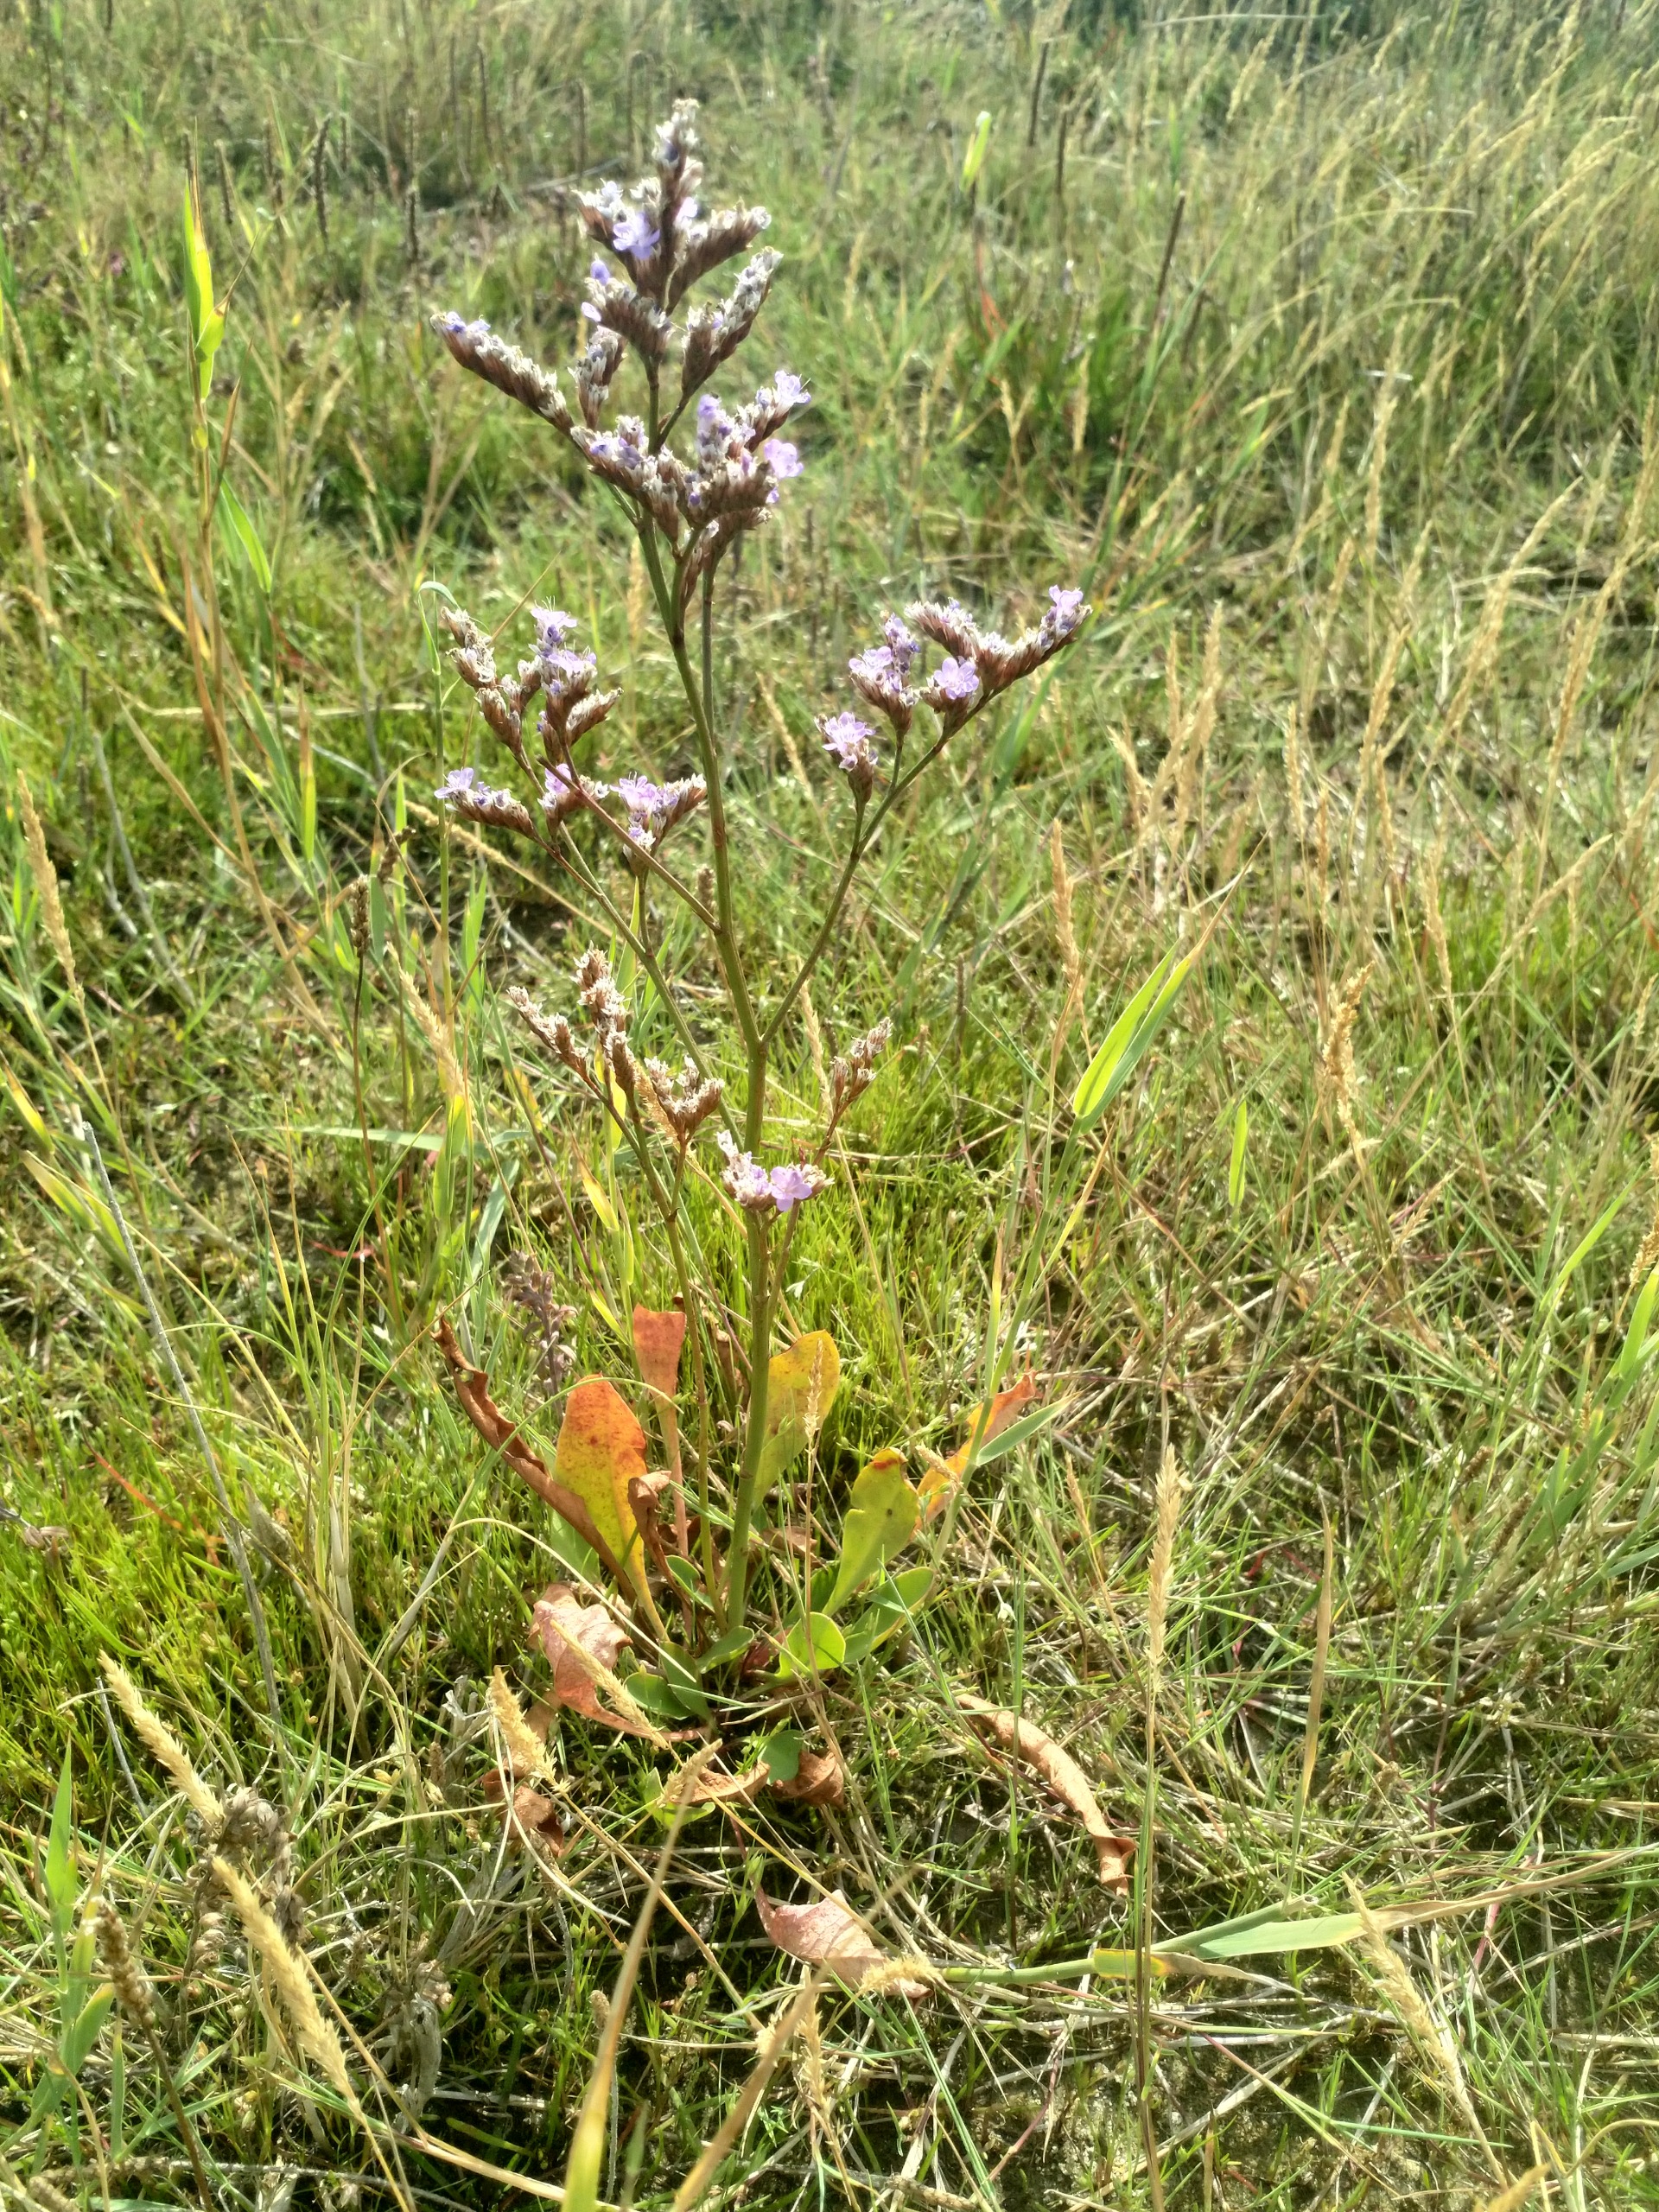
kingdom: Plantae
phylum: Tracheophyta
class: Magnoliopsida
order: Caryophyllales
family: Plumbaginaceae
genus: Limonium
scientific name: Limonium vulgare
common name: Tætblomstret hindebæger
